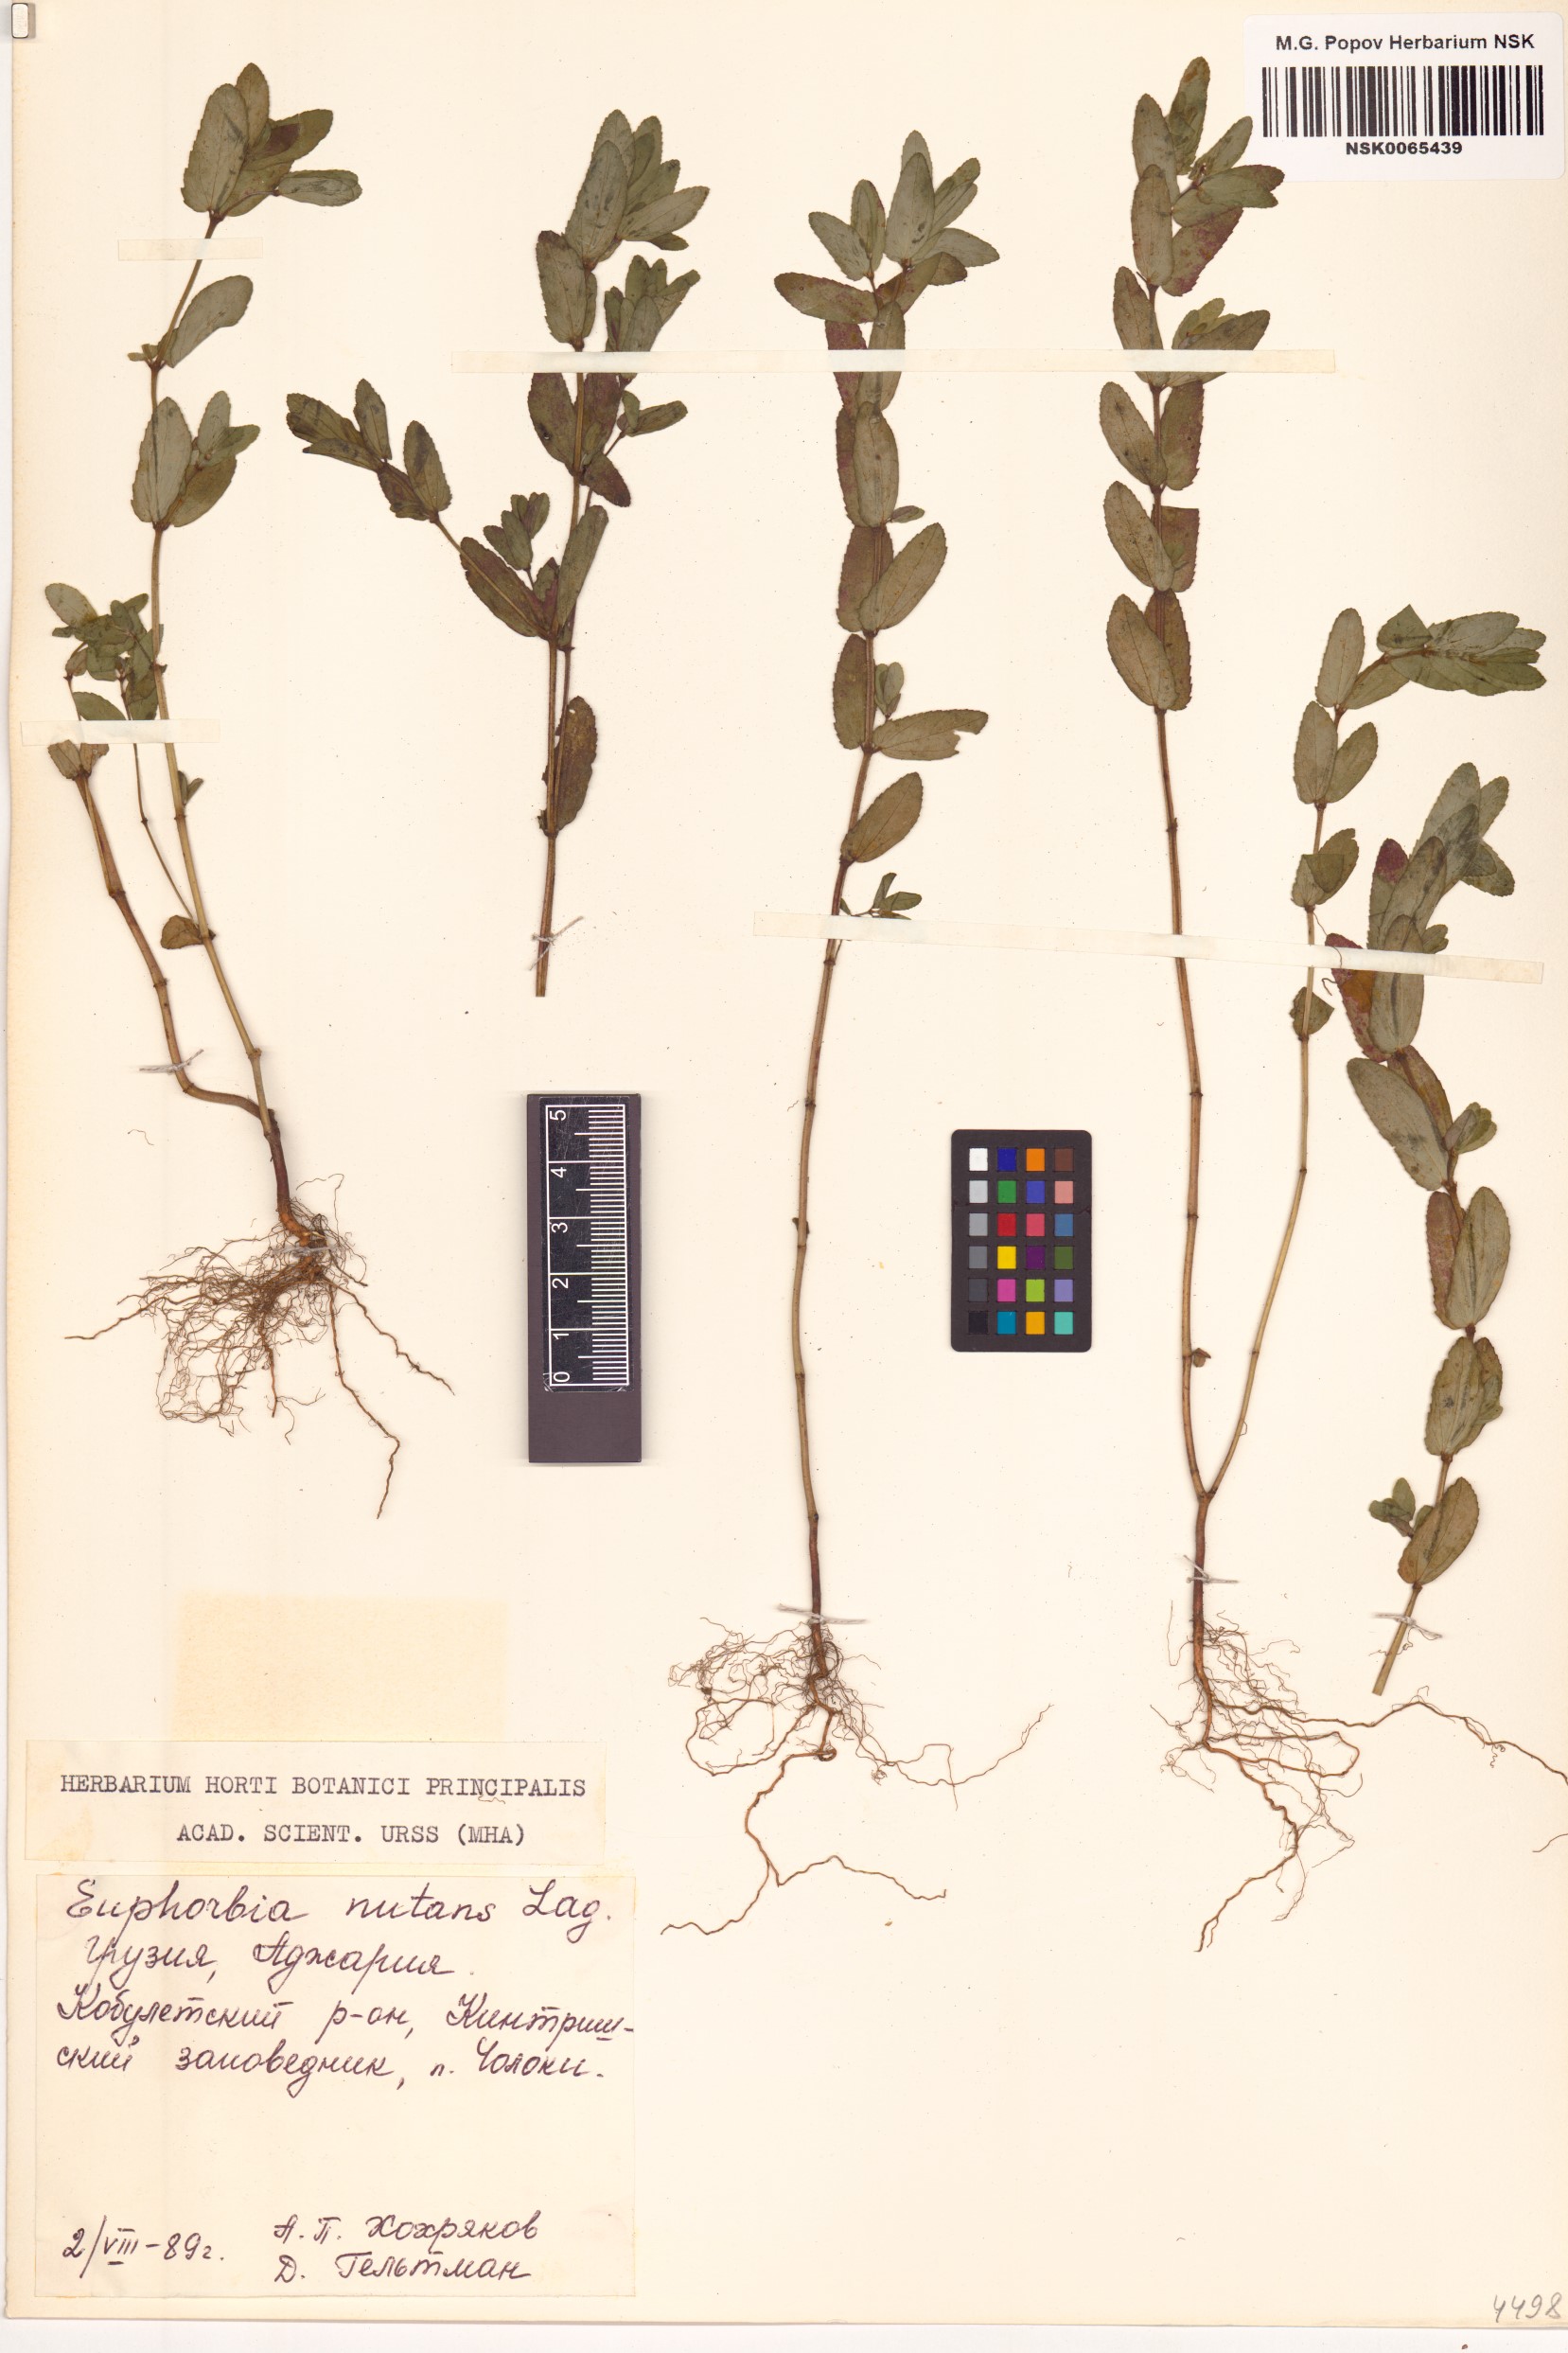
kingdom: Plantae
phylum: Tracheophyta
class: Magnoliopsida
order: Malpighiales
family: Euphorbiaceae
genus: Euphorbia
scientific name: Euphorbia nutans
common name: Eyebane
